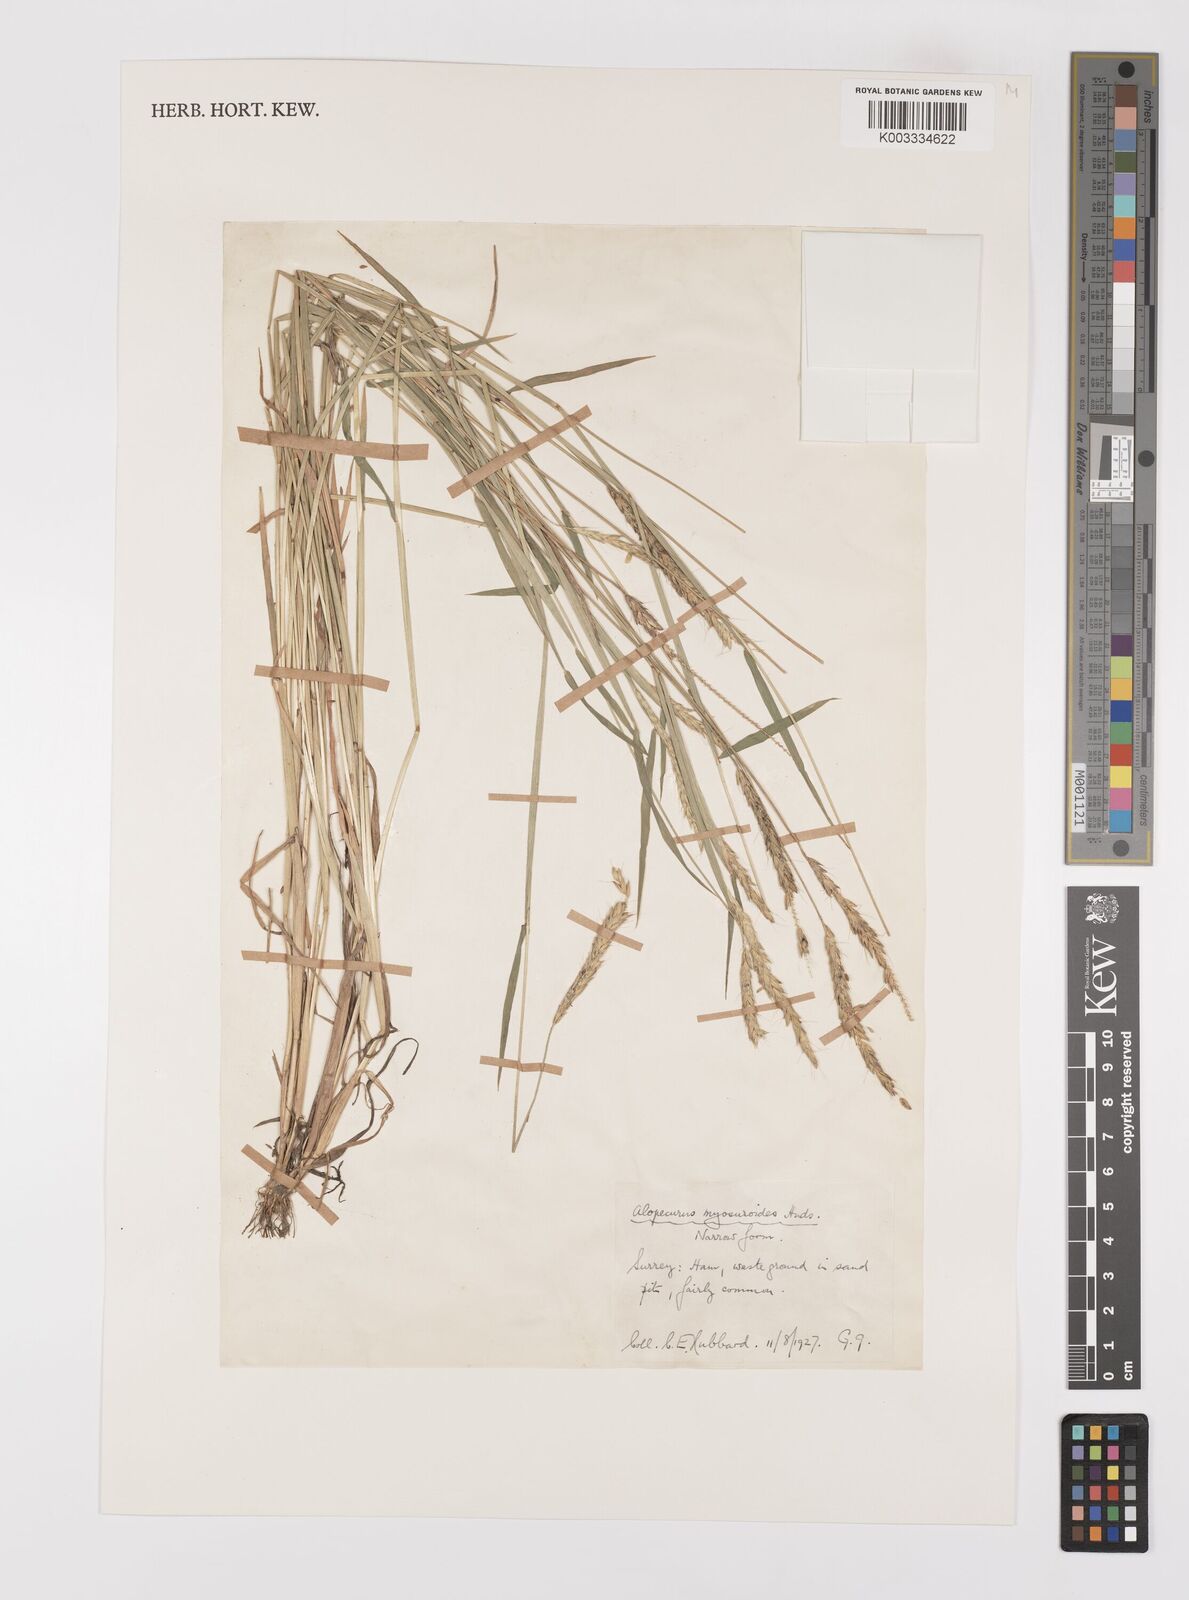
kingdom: Plantae
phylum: Tracheophyta
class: Liliopsida
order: Poales
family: Poaceae
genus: Alopecurus
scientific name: Alopecurus myosuroides
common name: Black-grass
